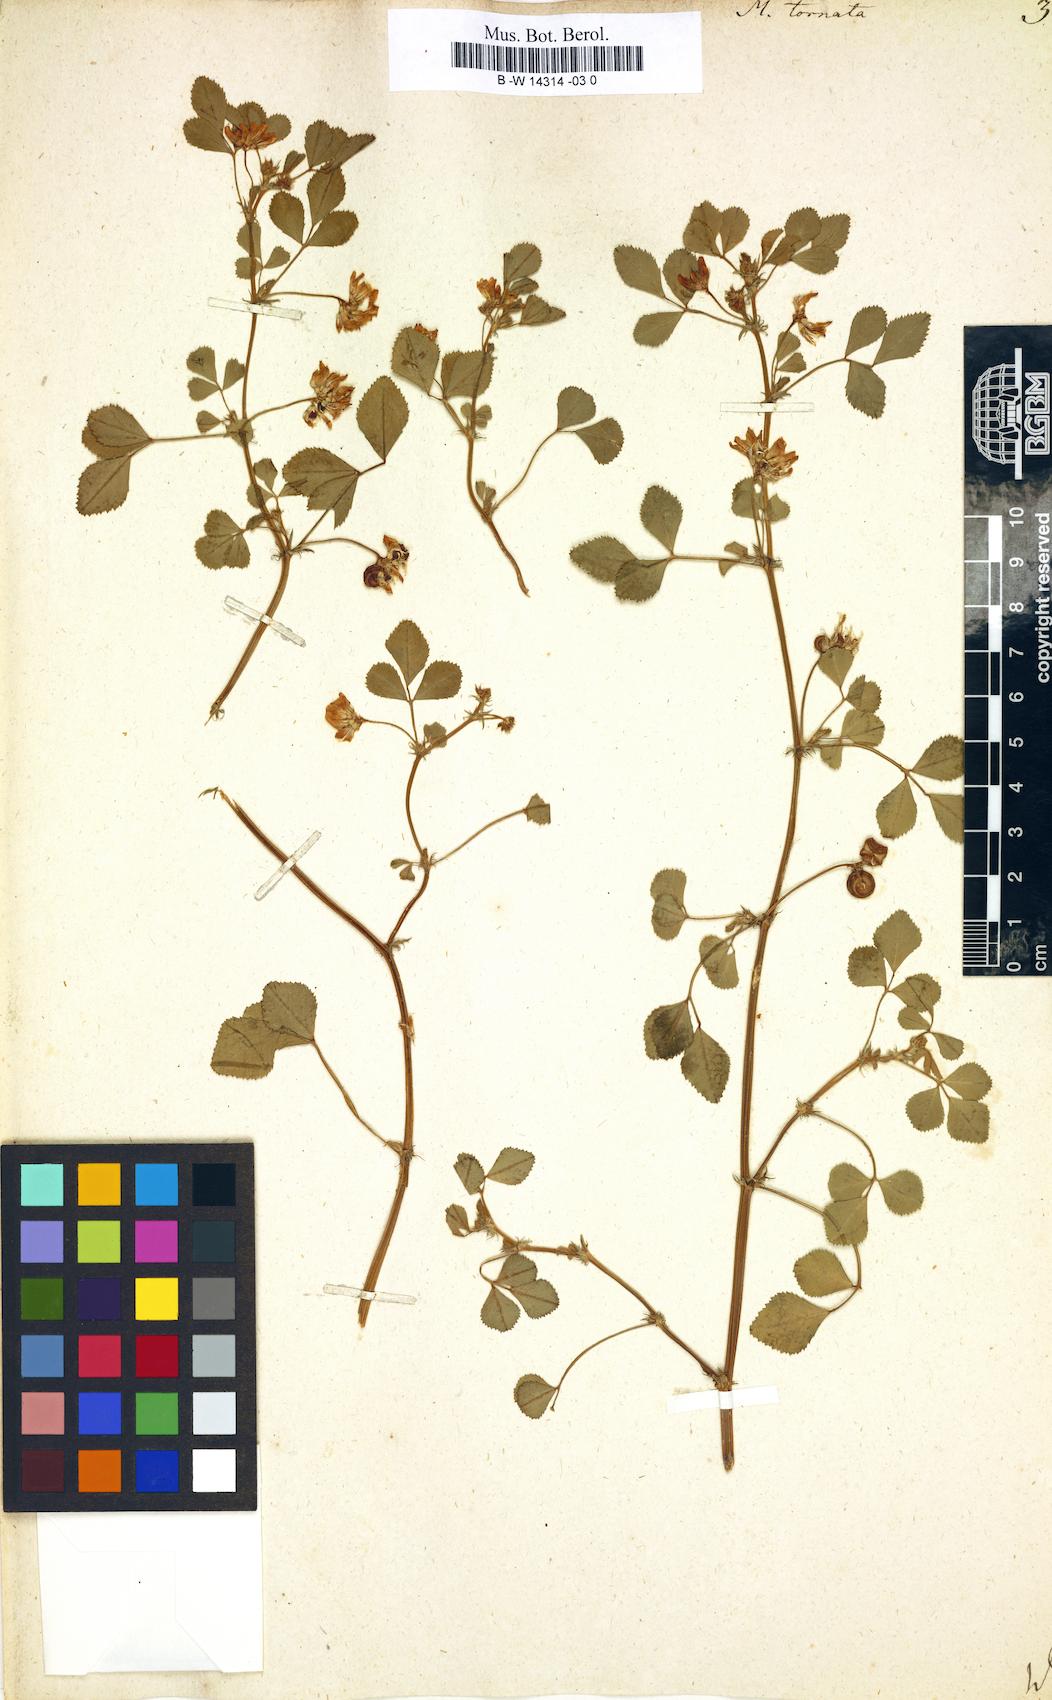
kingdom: Plantae
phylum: Tracheophyta
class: Magnoliopsida
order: Fabales
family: Fabaceae
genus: Medicago
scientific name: Medicago tornata
